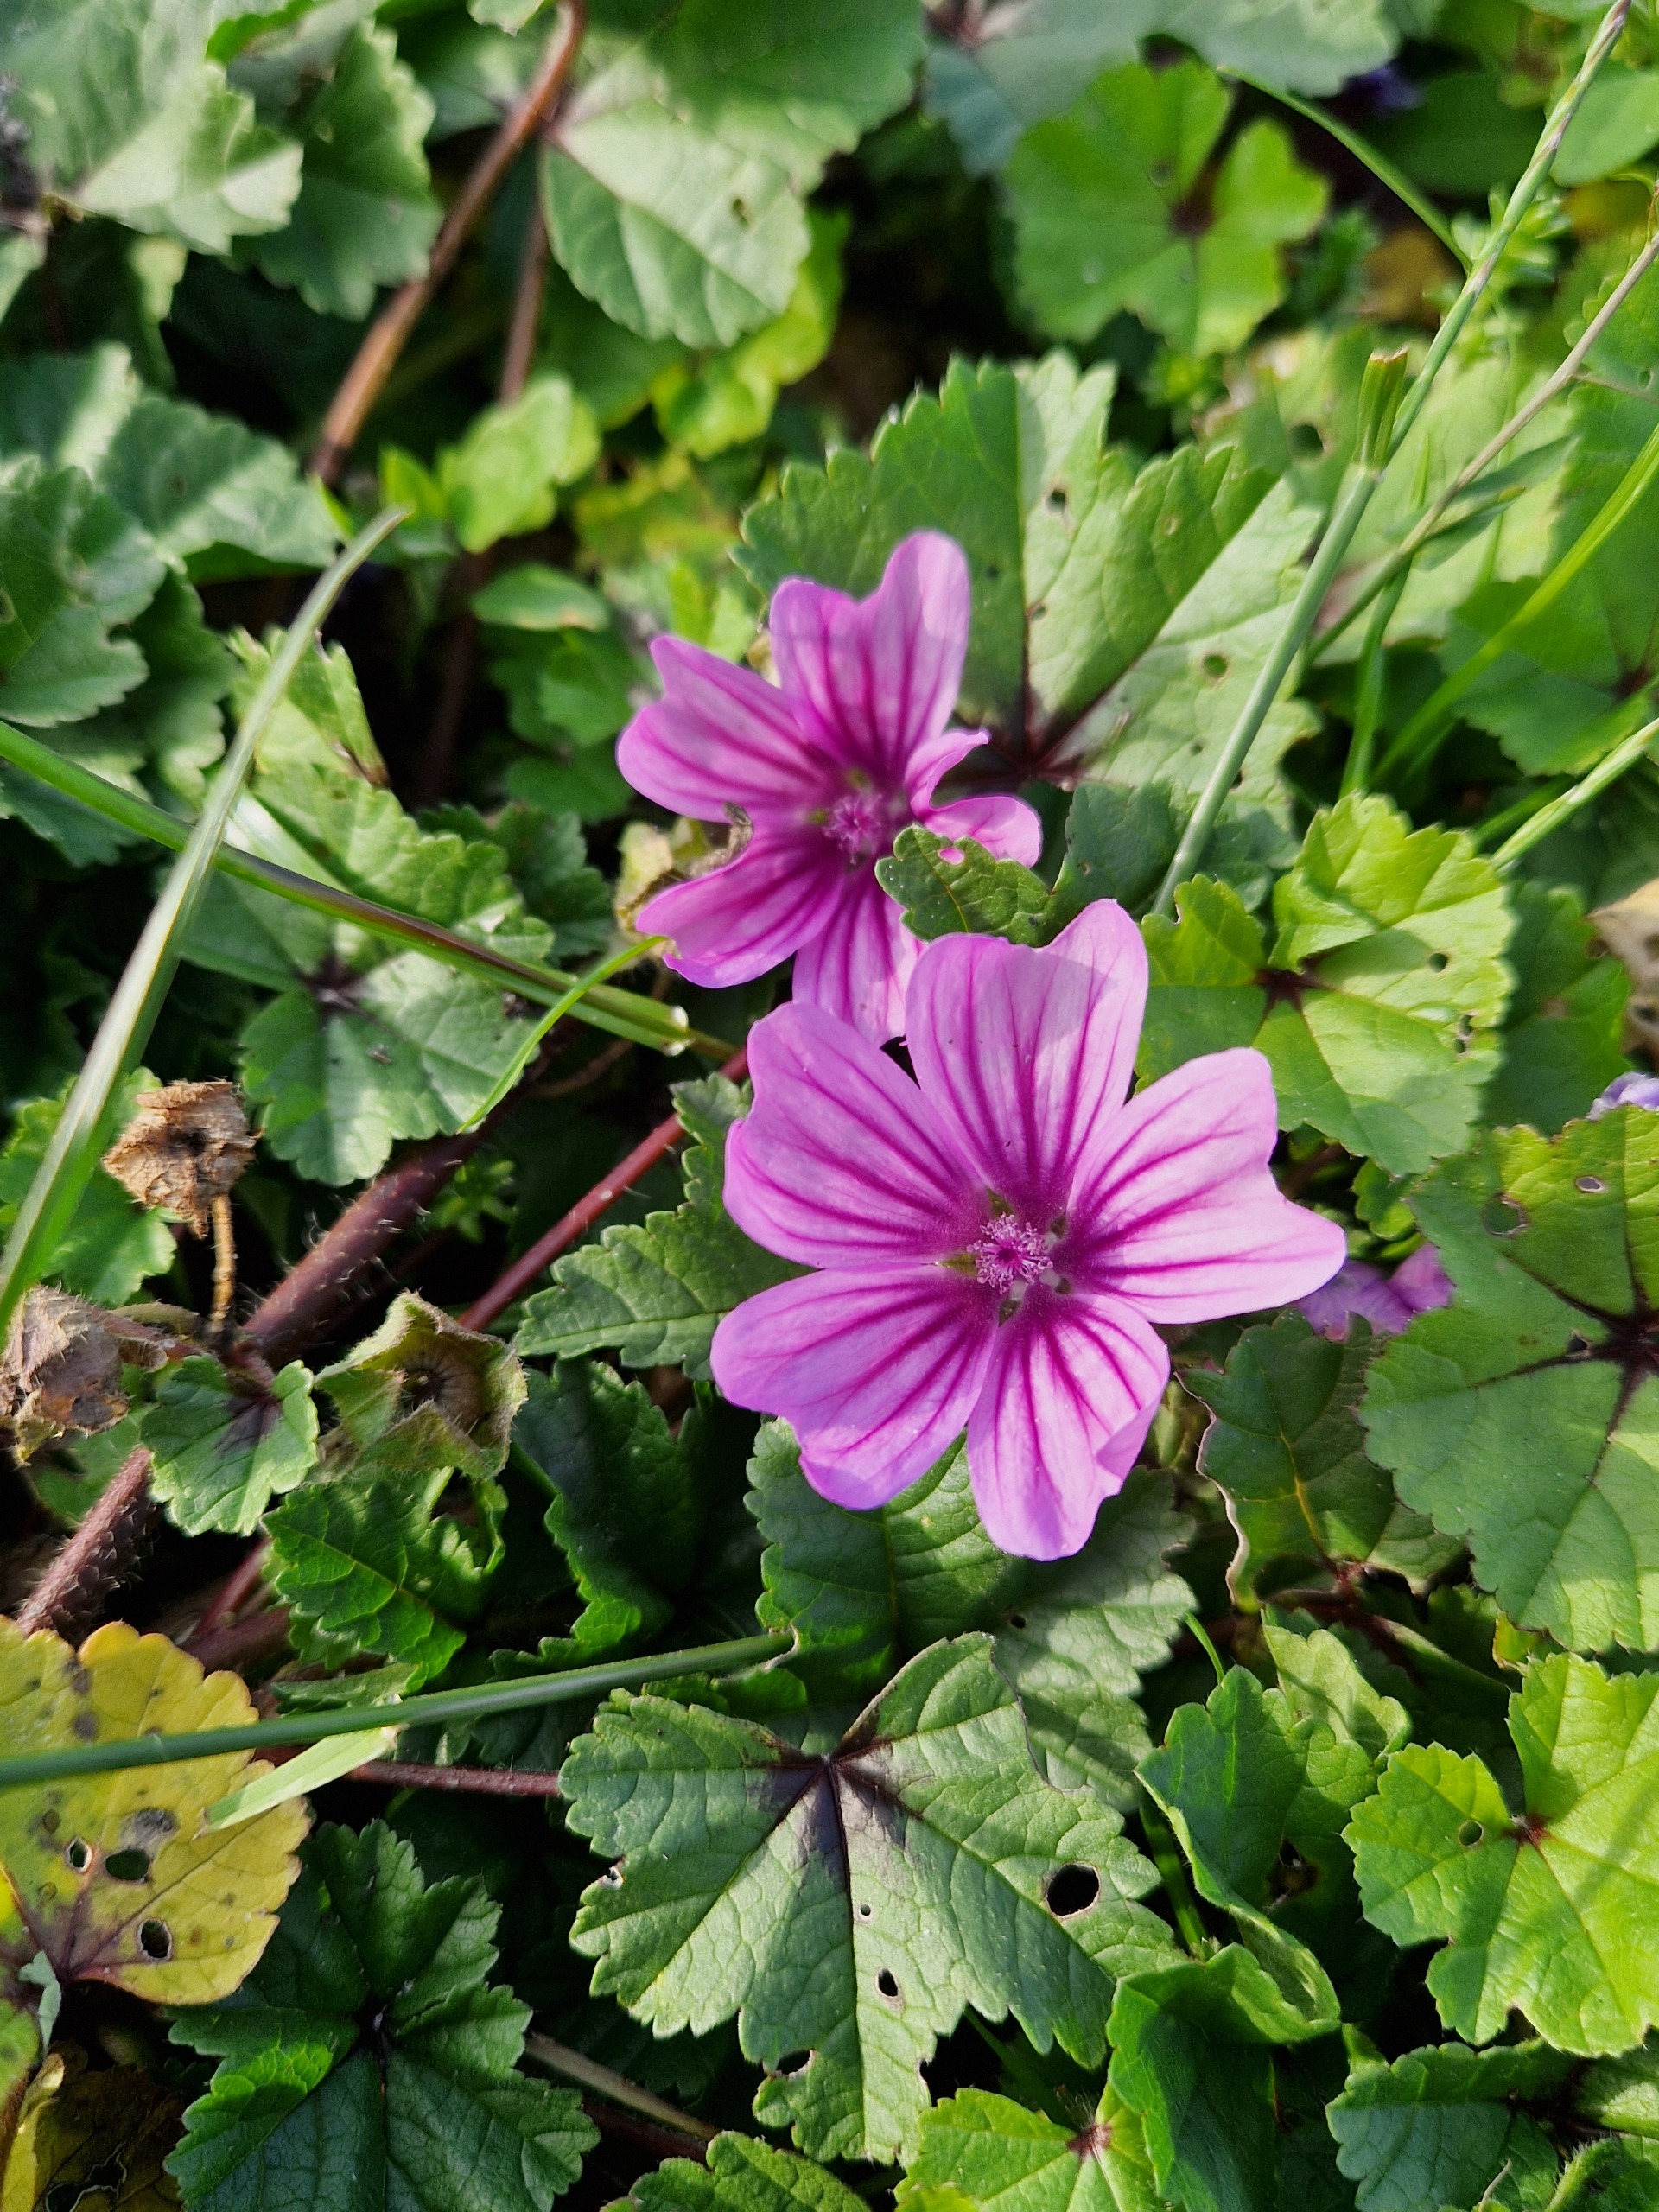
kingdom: Plantae
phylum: Tracheophyta
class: Magnoliopsida
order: Malvales
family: Malvaceae
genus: Malva
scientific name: Malva sylvestris
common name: Almindelig katost
